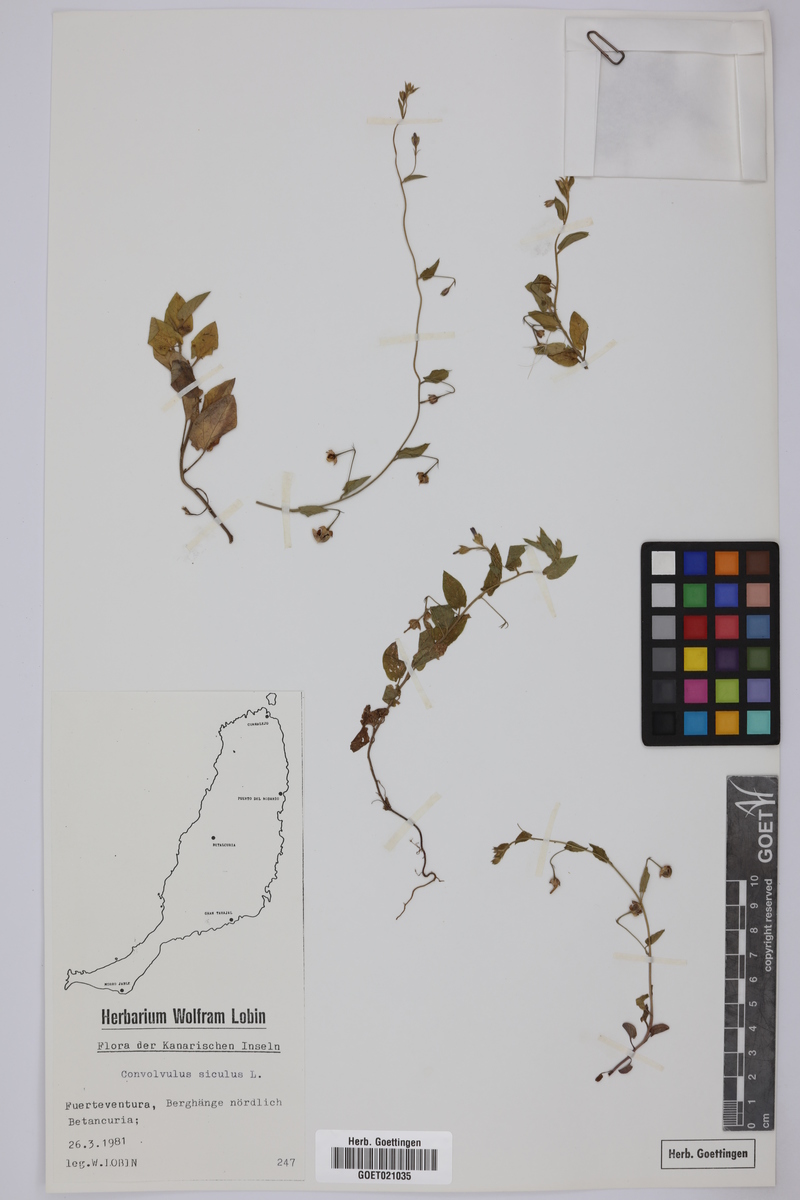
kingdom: Plantae
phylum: Tracheophyta
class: Magnoliopsida
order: Solanales
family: Convolvulaceae
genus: Convolvulus
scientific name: Convolvulus siculus
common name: Small blue-convolvulus
